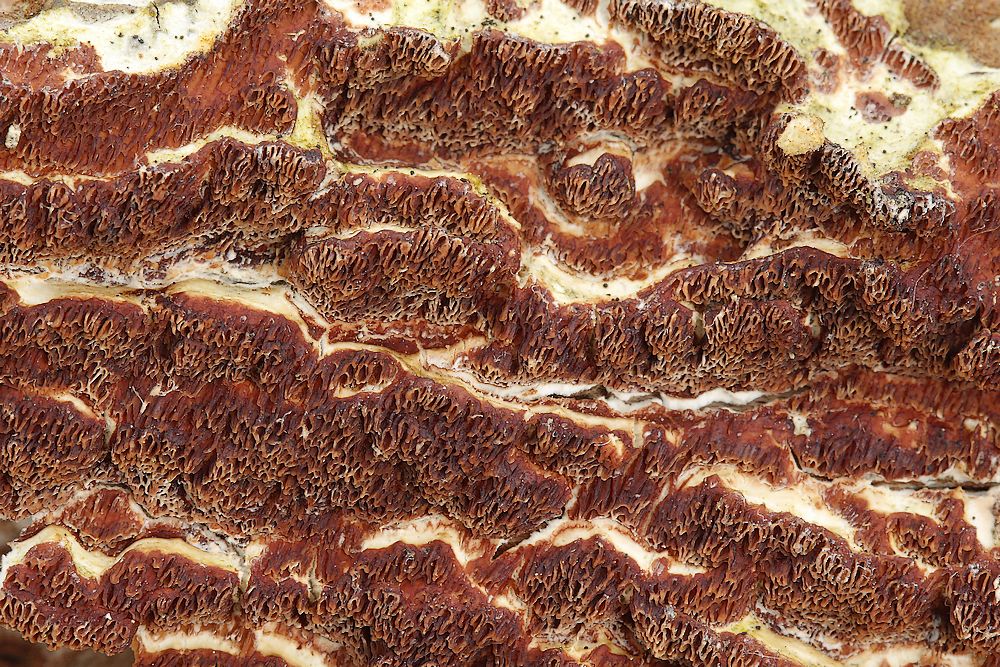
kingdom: Fungi
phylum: Basidiomycota
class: Agaricomycetes
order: Polyporales
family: Irpicaceae
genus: Meruliopsis
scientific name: Meruliopsis taxicola
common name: purpurbrun foldporesvamp
